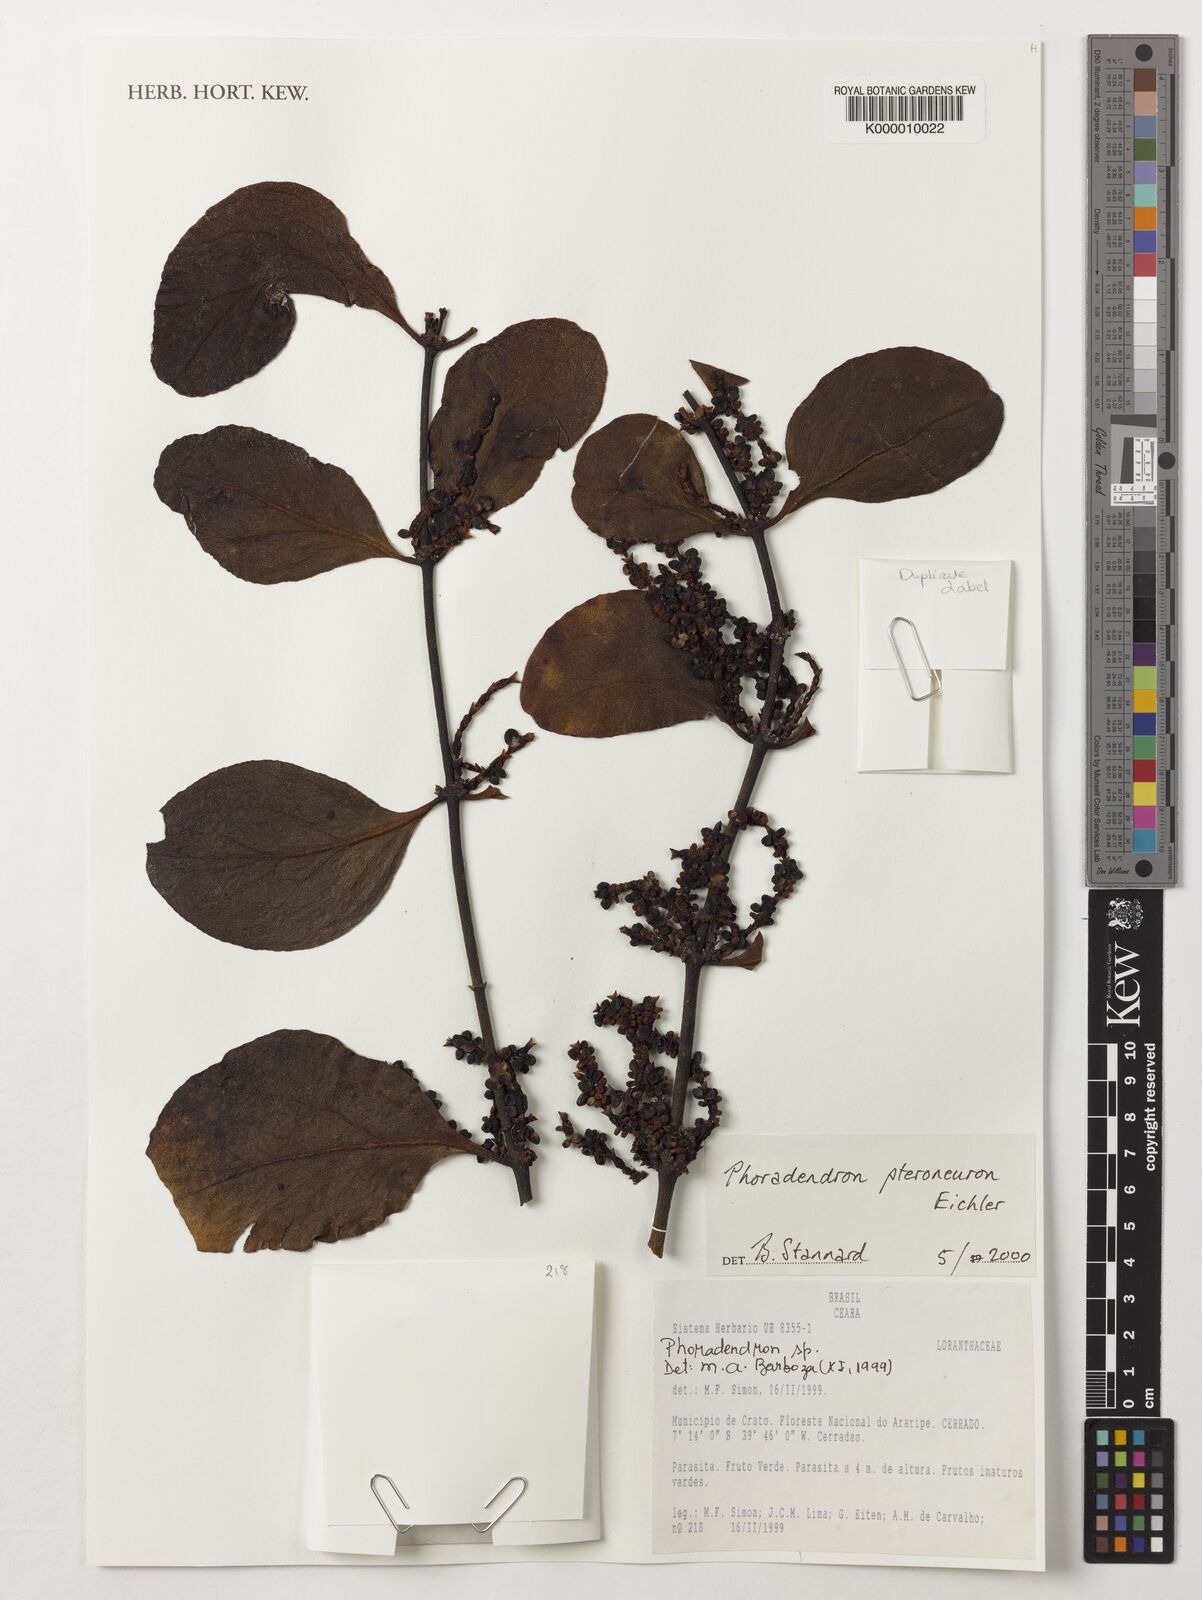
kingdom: Plantae
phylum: Tracheophyta
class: Magnoliopsida
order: Santalales
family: Viscaceae
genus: Phoradendron
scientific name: Phoradendron pteroneuron
